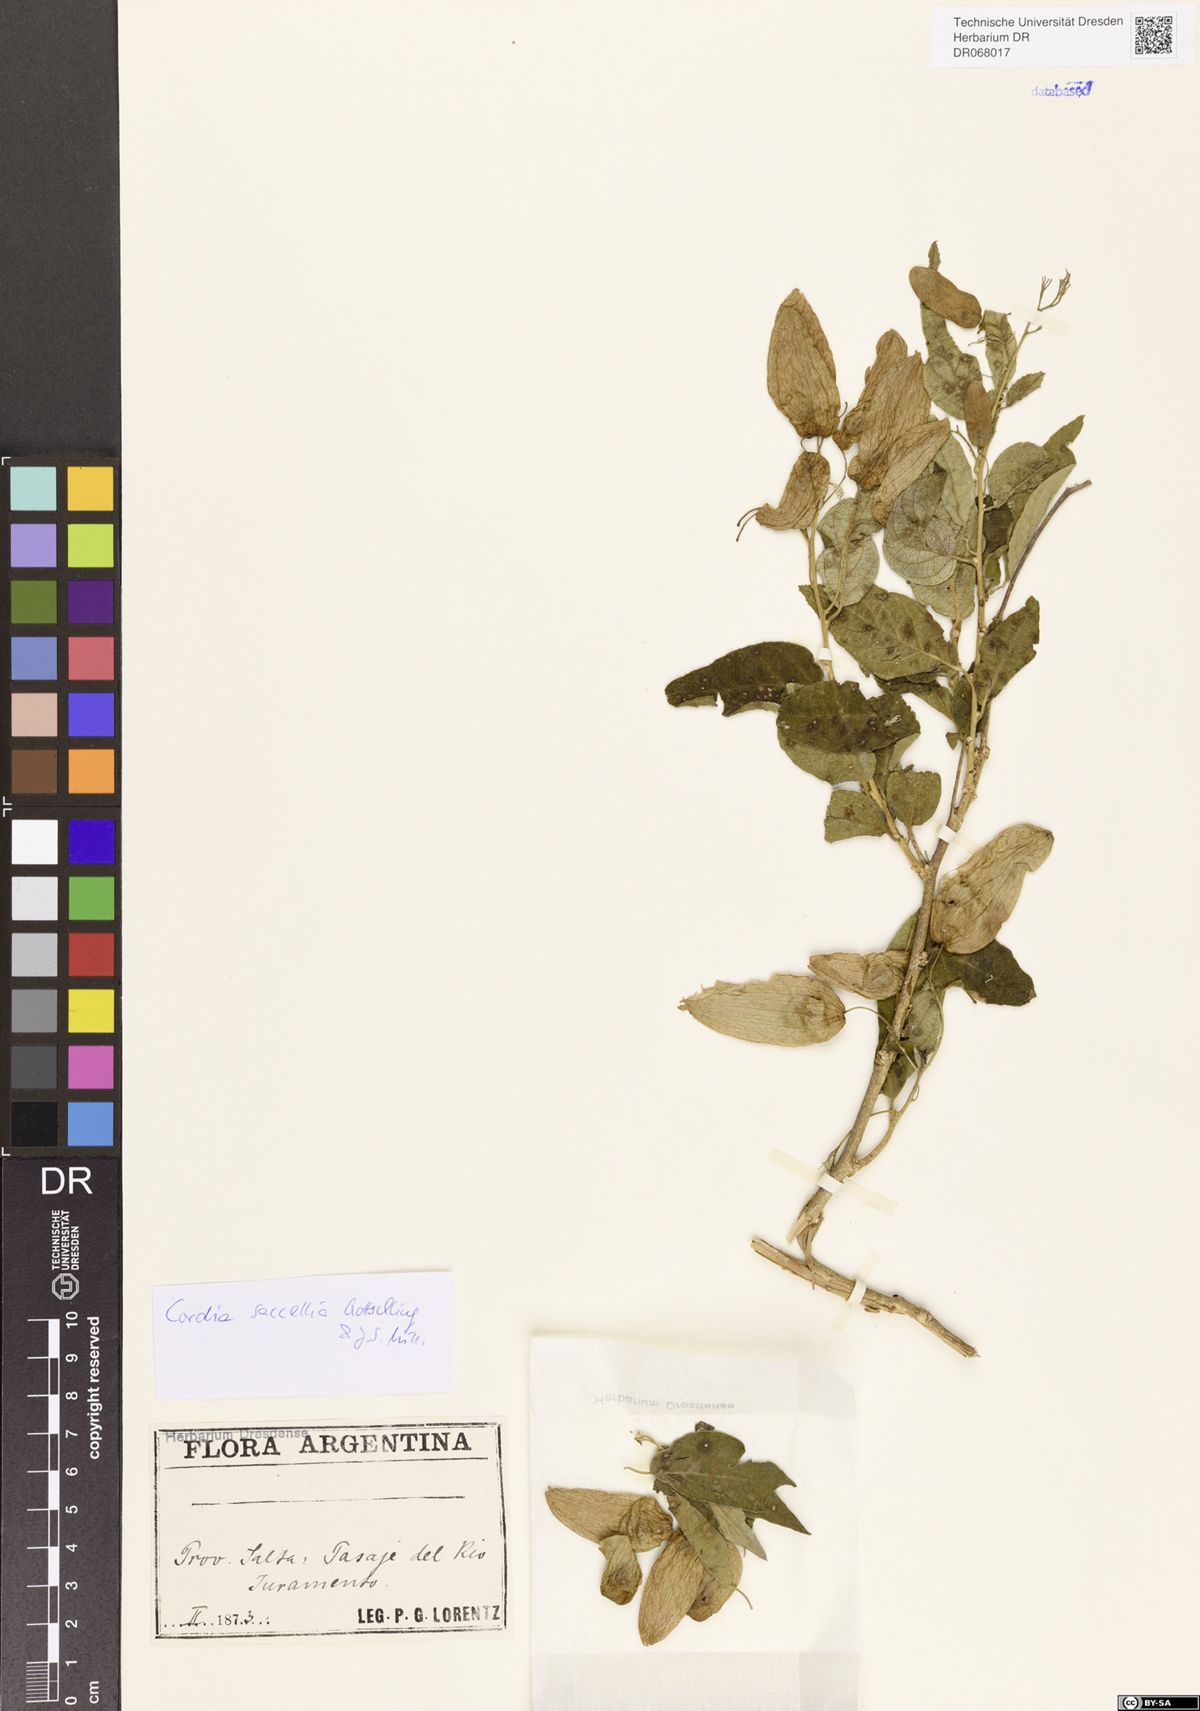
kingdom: Plantae
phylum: Tracheophyta
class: Magnoliopsida
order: Boraginales
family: Cordiaceae
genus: Cordia
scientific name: Cordia saccellia
